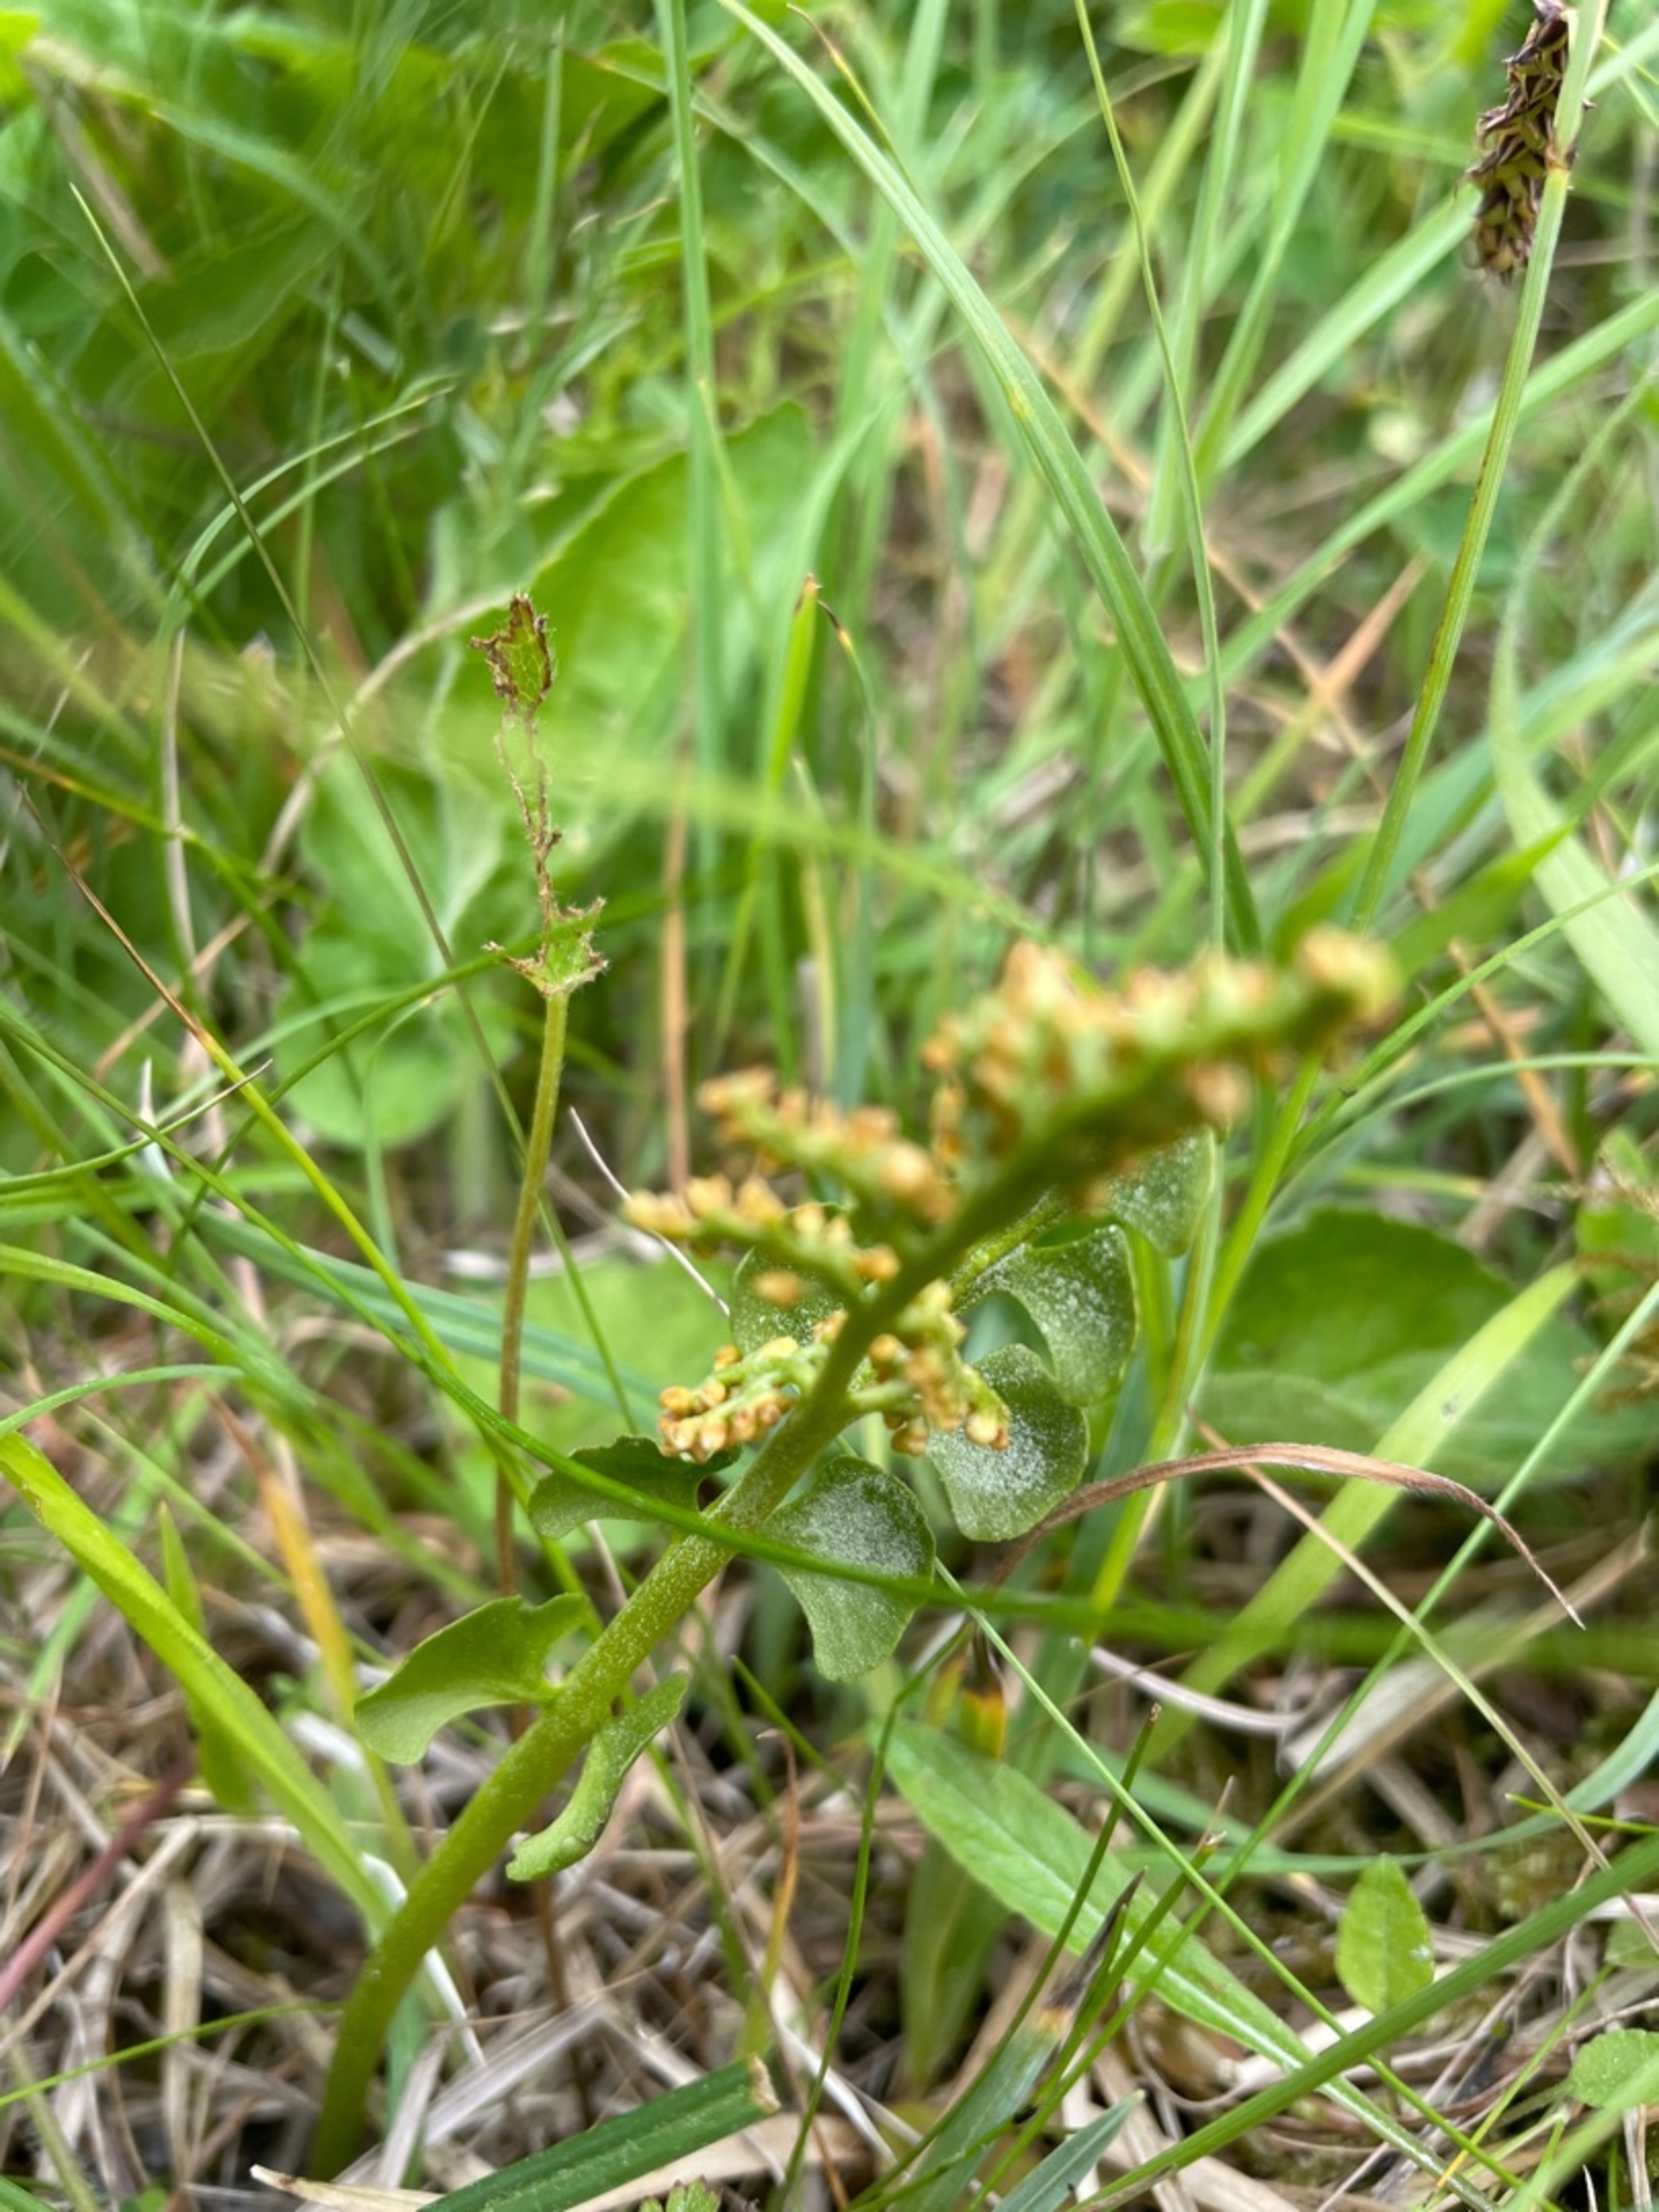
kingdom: Plantae
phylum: Tracheophyta
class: Polypodiopsida
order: Ophioglossales
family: Ophioglossaceae
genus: Botrychium
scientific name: Botrychium lunaria
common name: Almindelig månerude
